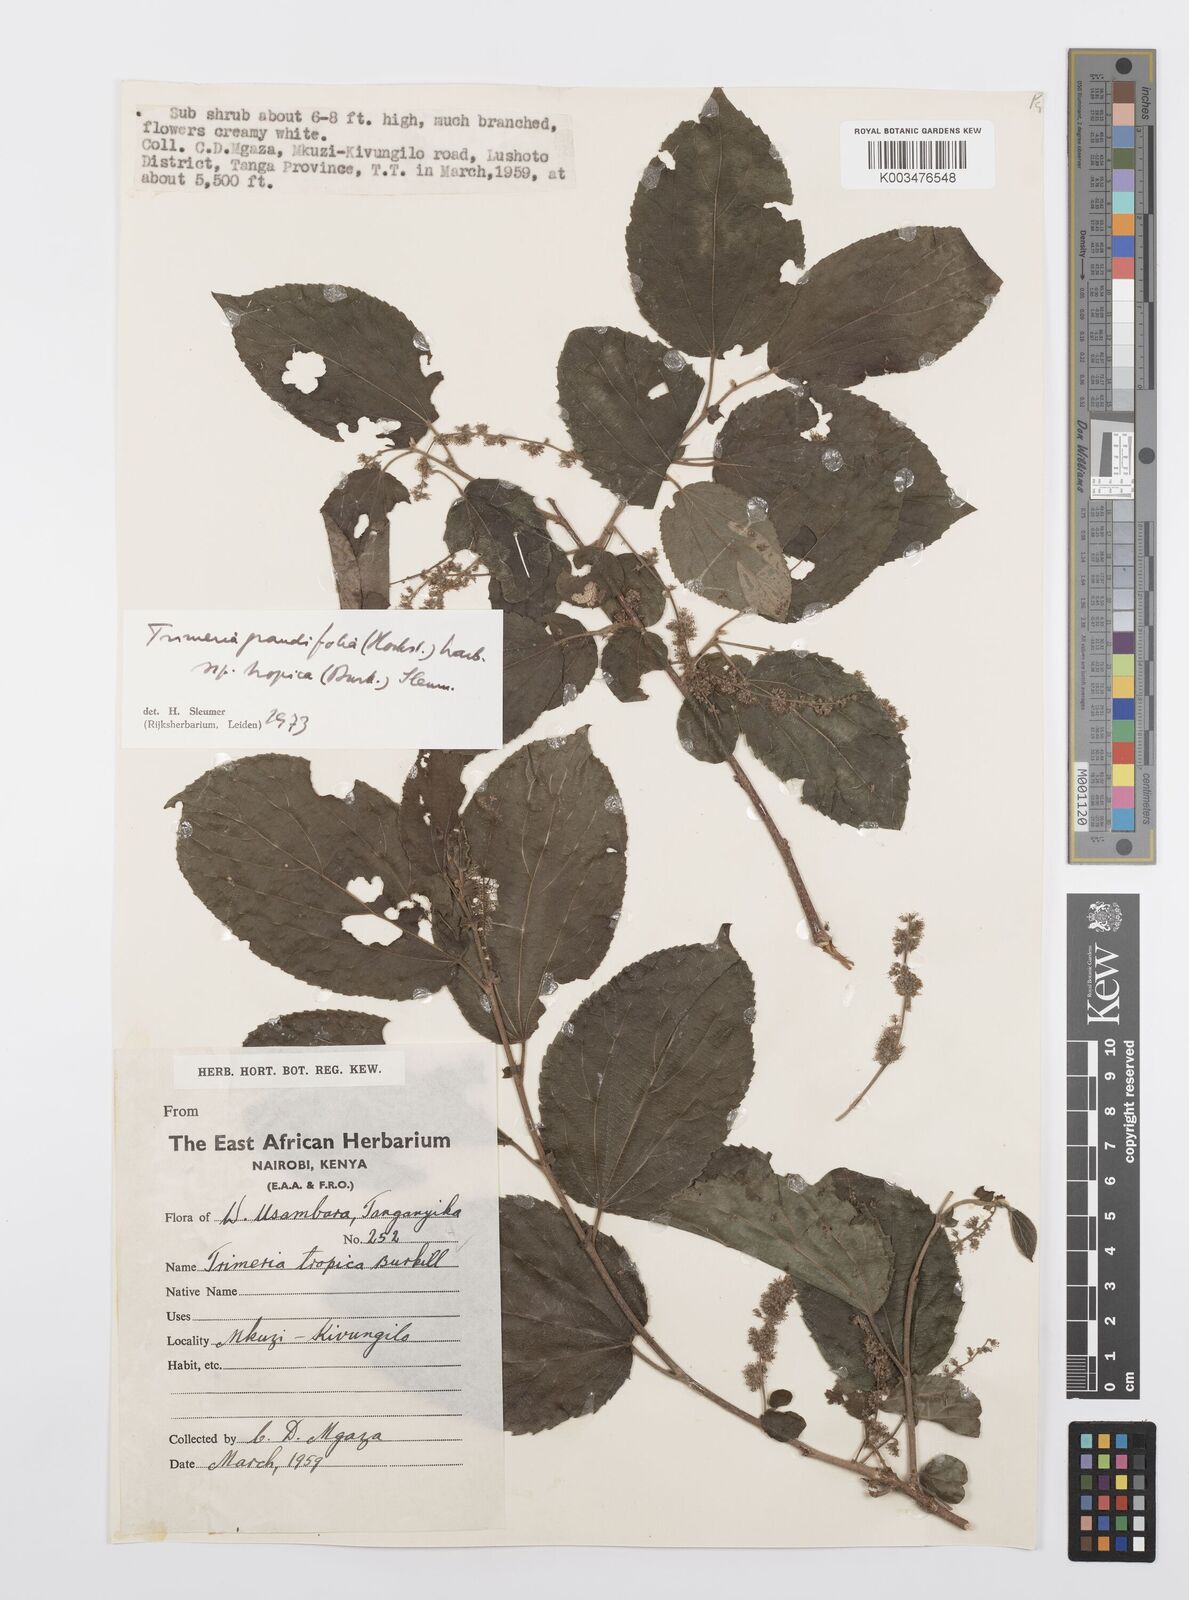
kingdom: Plantae
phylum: Tracheophyta
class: Magnoliopsida
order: Malpighiales
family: Salicaceae
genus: Trimeria
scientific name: Trimeria grandifolia
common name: Wild mulberry
